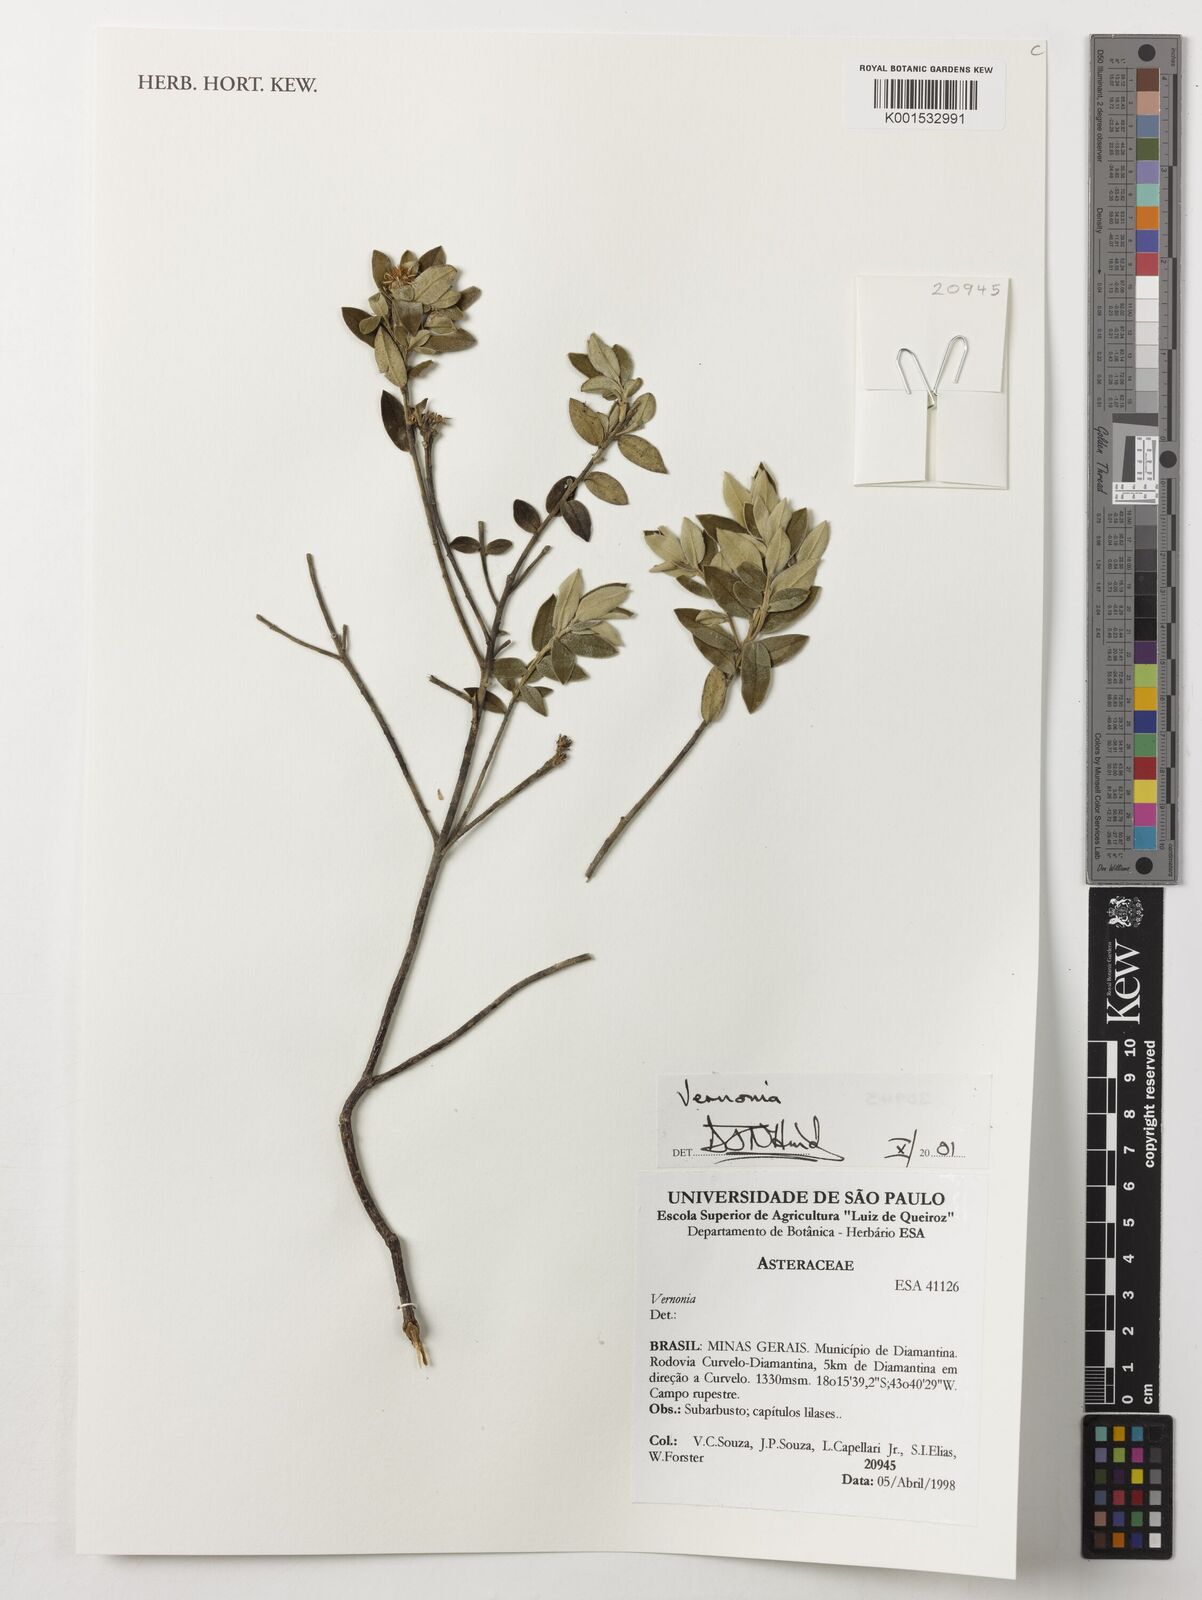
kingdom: Plantae
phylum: Tracheophyta
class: Magnoliopsida
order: Asterales
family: Asteraceae
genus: Vernonia
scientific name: Vernonia
